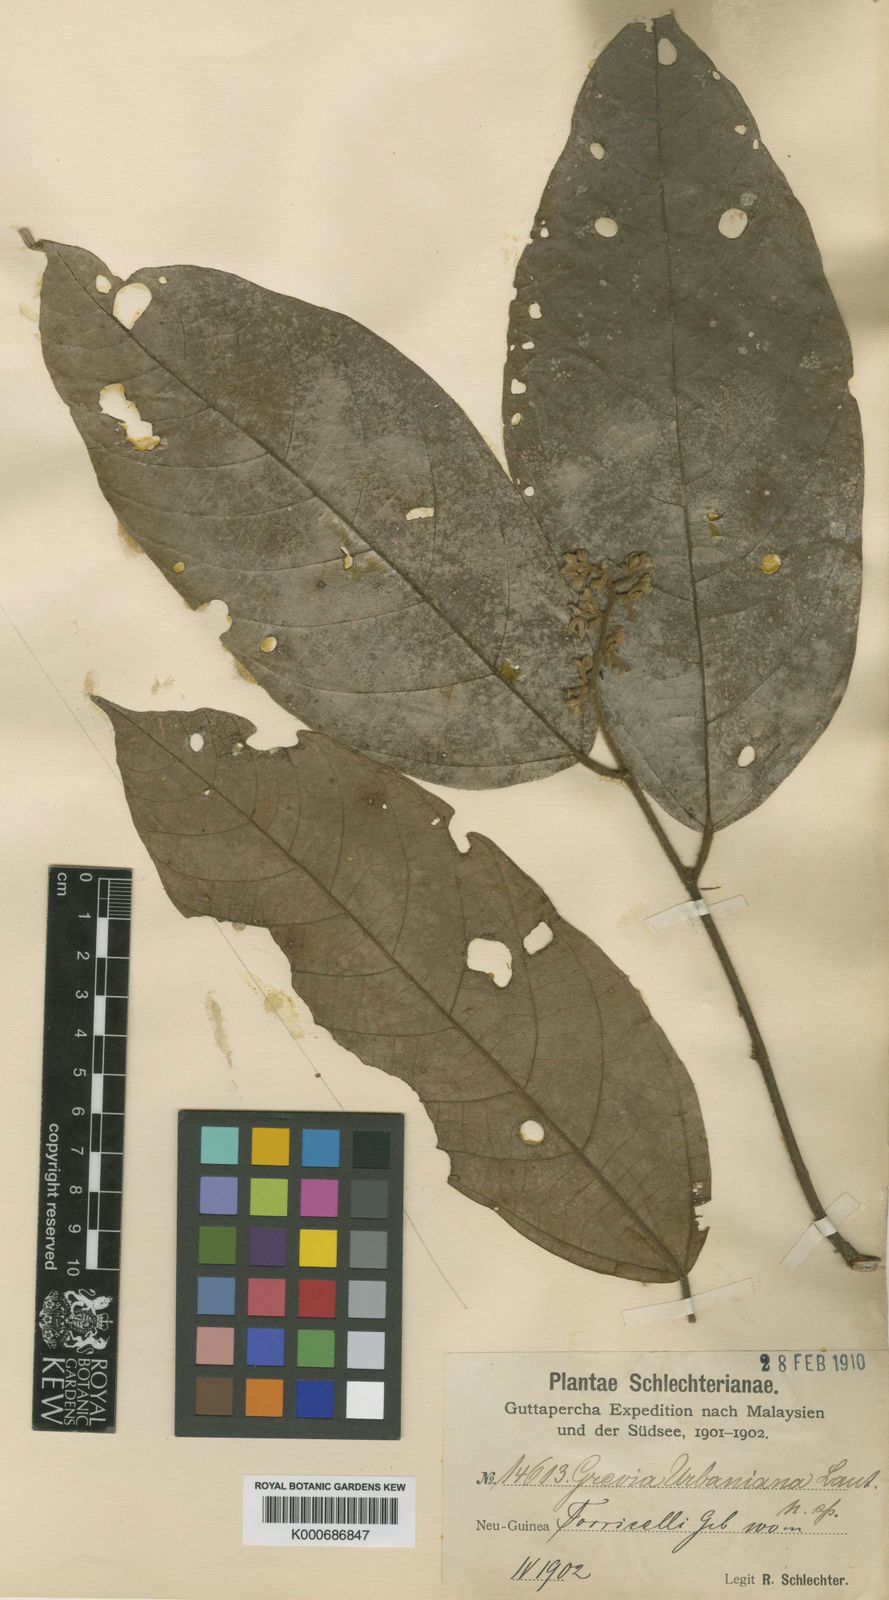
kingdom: Plantae
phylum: Tracheophyta
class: Magnoliopsida
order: Malvales
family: Malvaceae
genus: Microcos
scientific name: Microcos urbaniana
